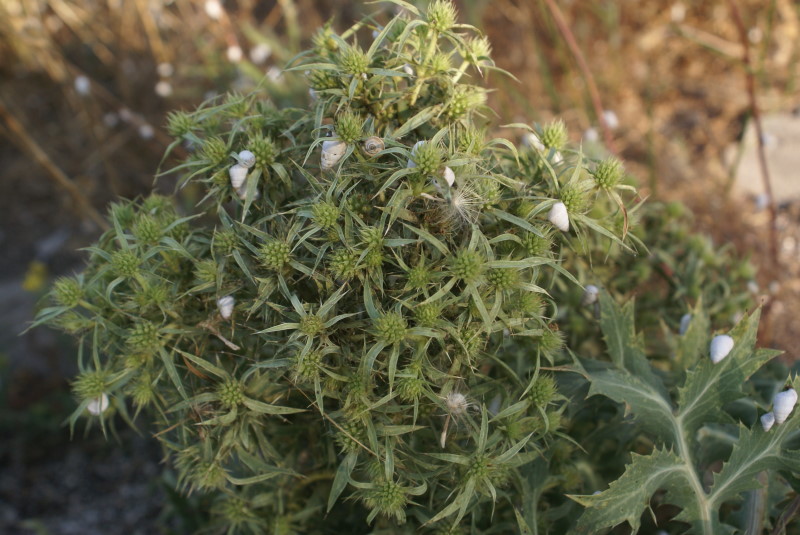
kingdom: Plantae
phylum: Tracheophyta
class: Magnoliopsida
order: Apiales
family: Apiaceae
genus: Eryngium
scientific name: Eryngium campestre
